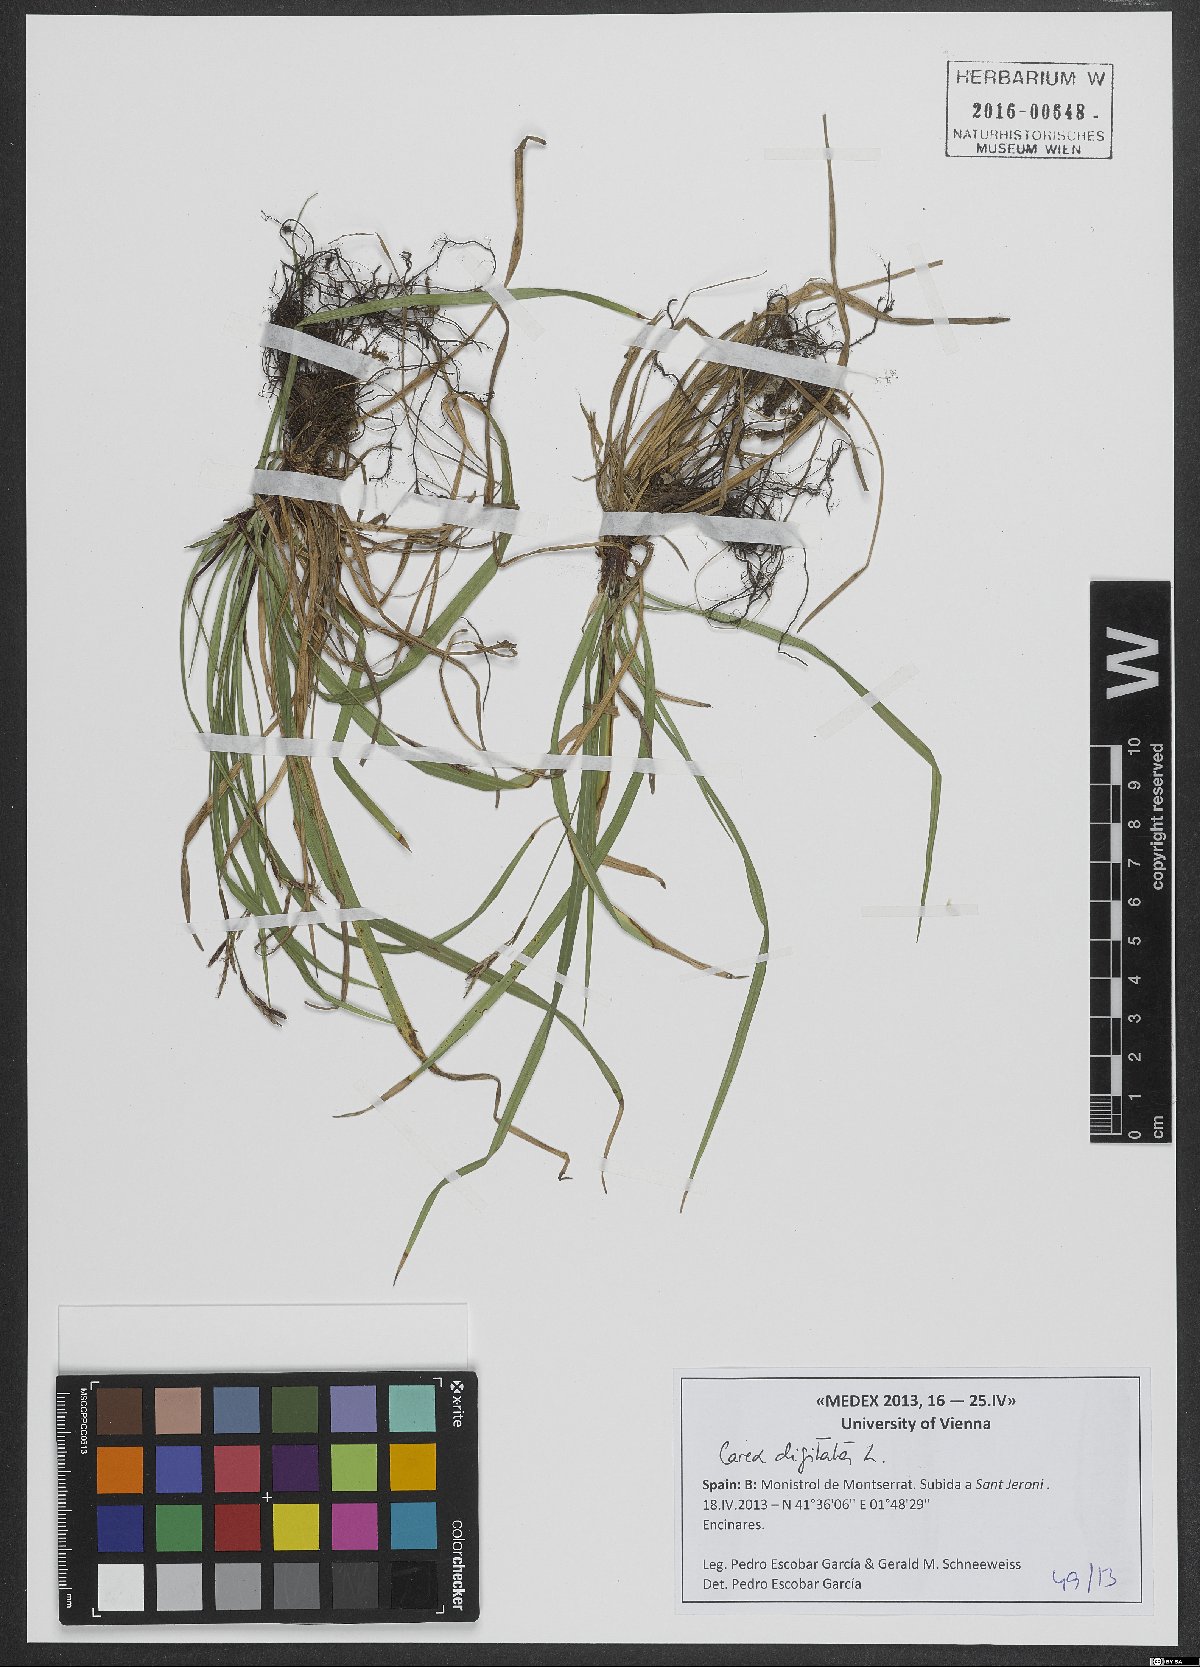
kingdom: Plantae
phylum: Tracheophyta
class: Liliopsida
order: Poales
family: Cyperaceae
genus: Carex
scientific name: Carex digitata
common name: Fingered sedge
